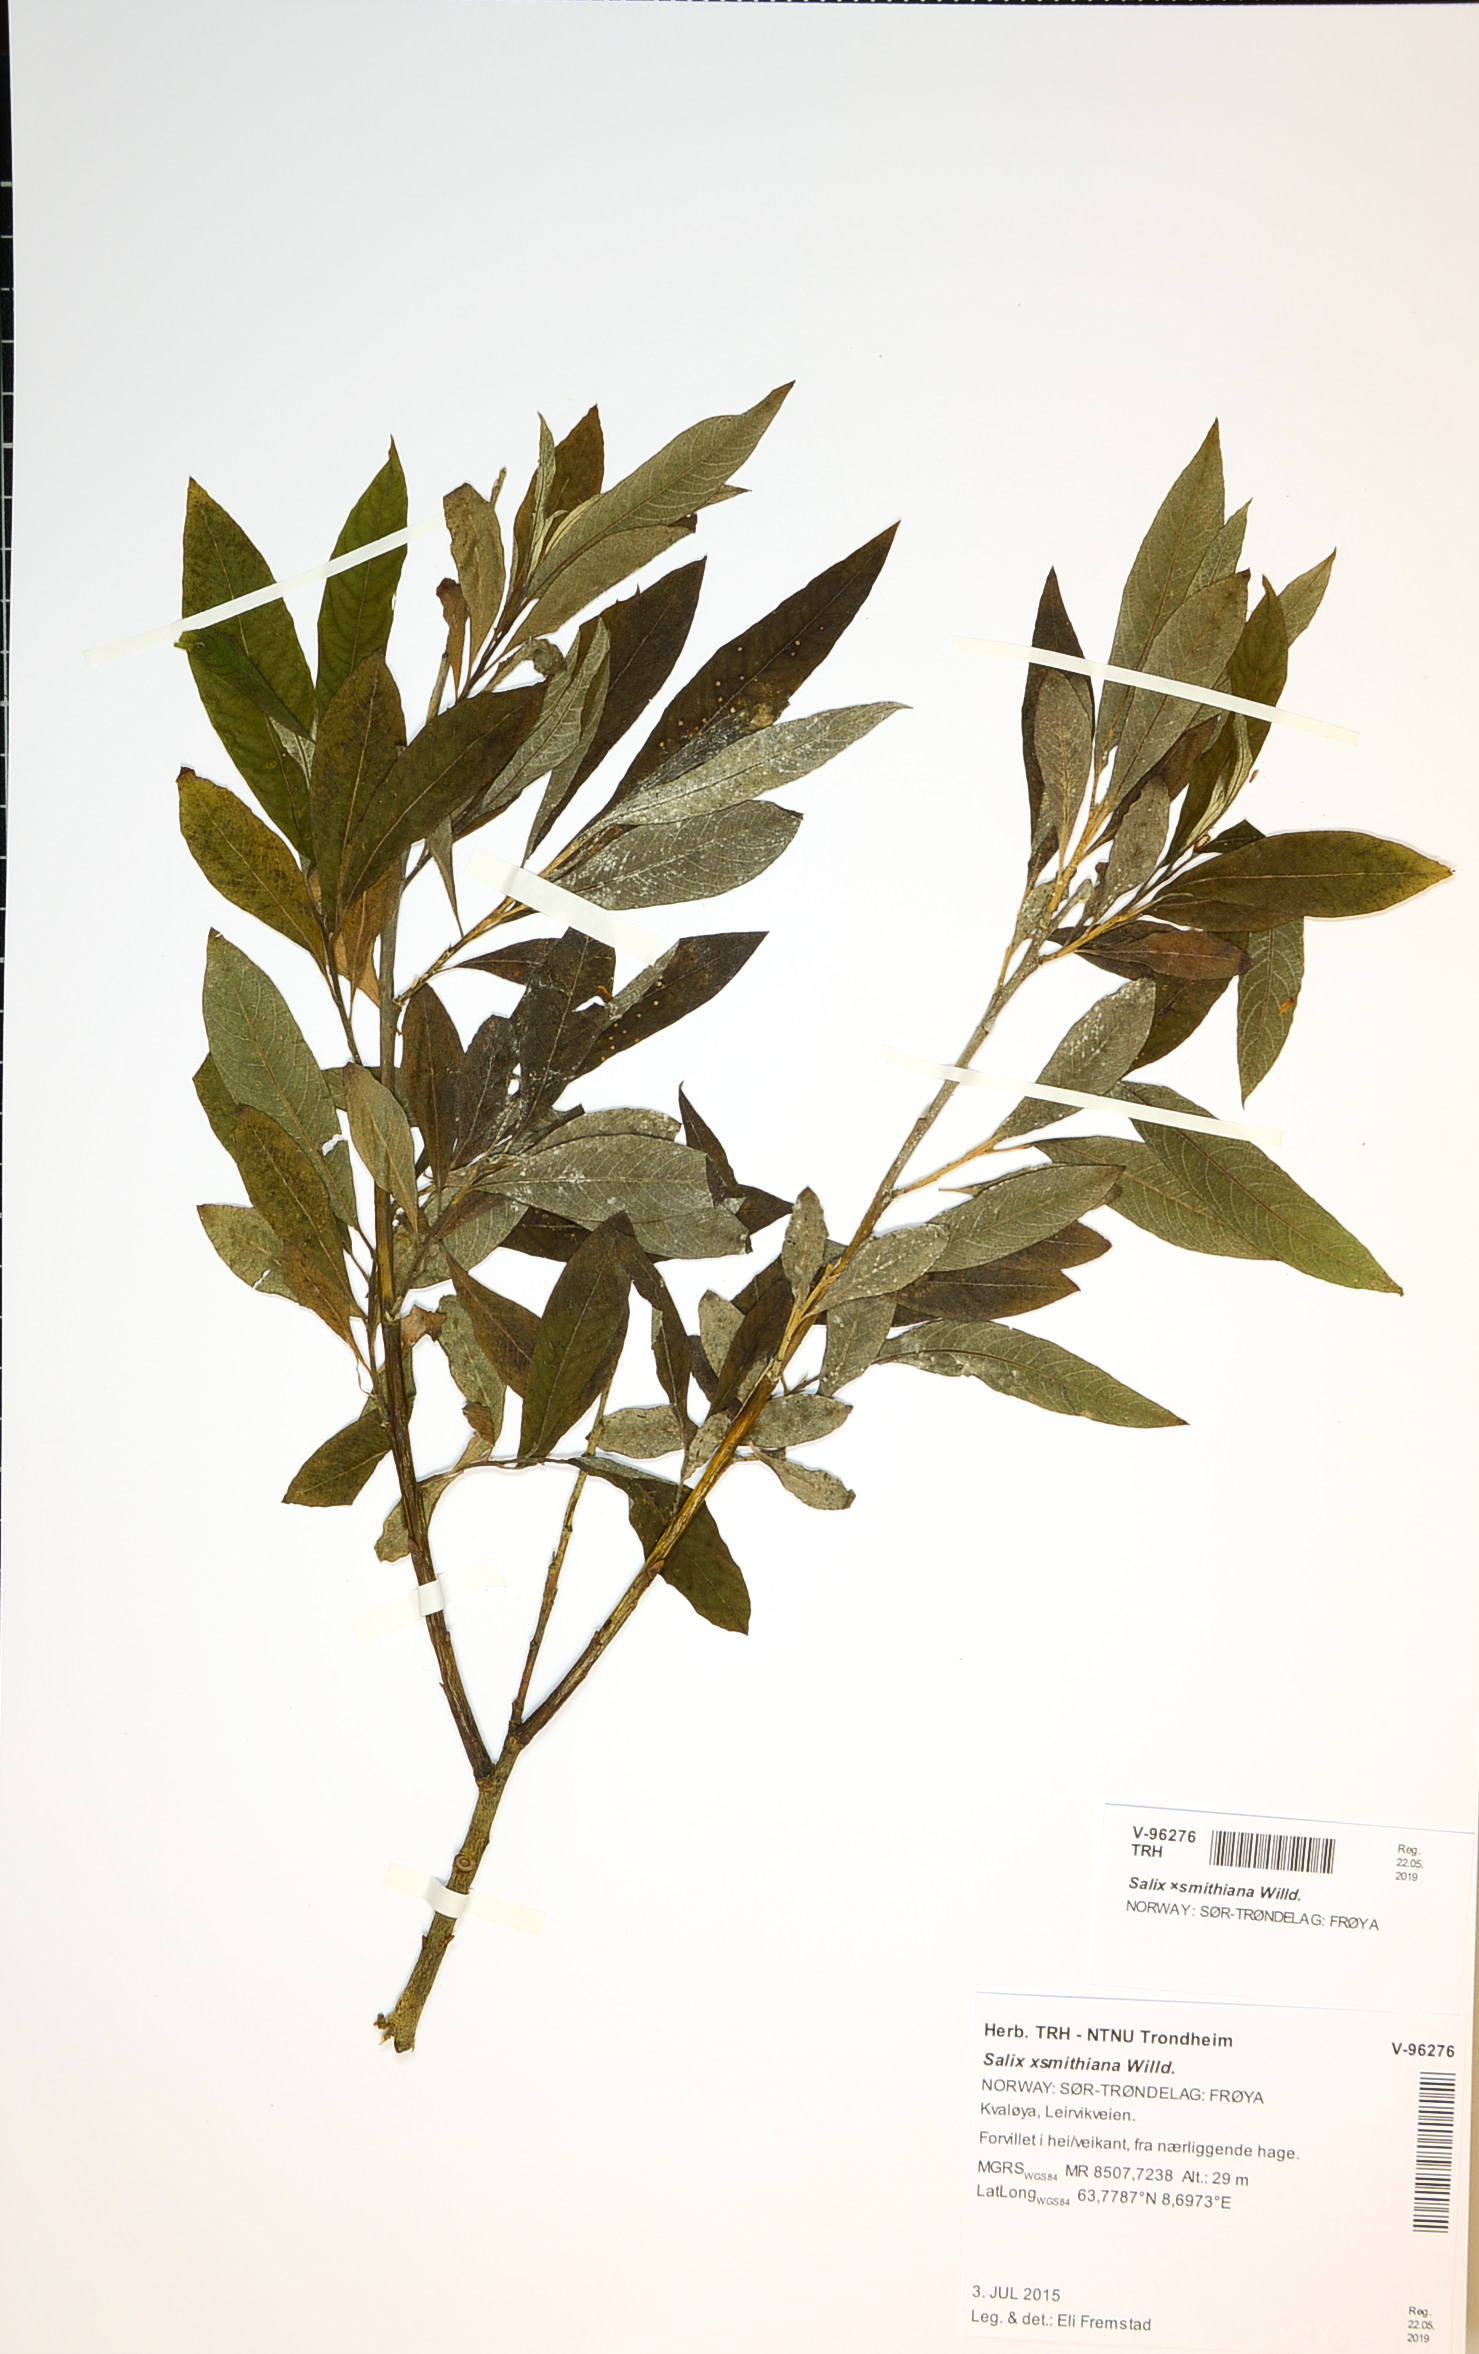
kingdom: Plantae
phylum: Tracheophyta
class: Magnoliopsida
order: Malpighiales
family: Salicaceae
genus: Salix
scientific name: Salix smithiana
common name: Silky-leaved osier
